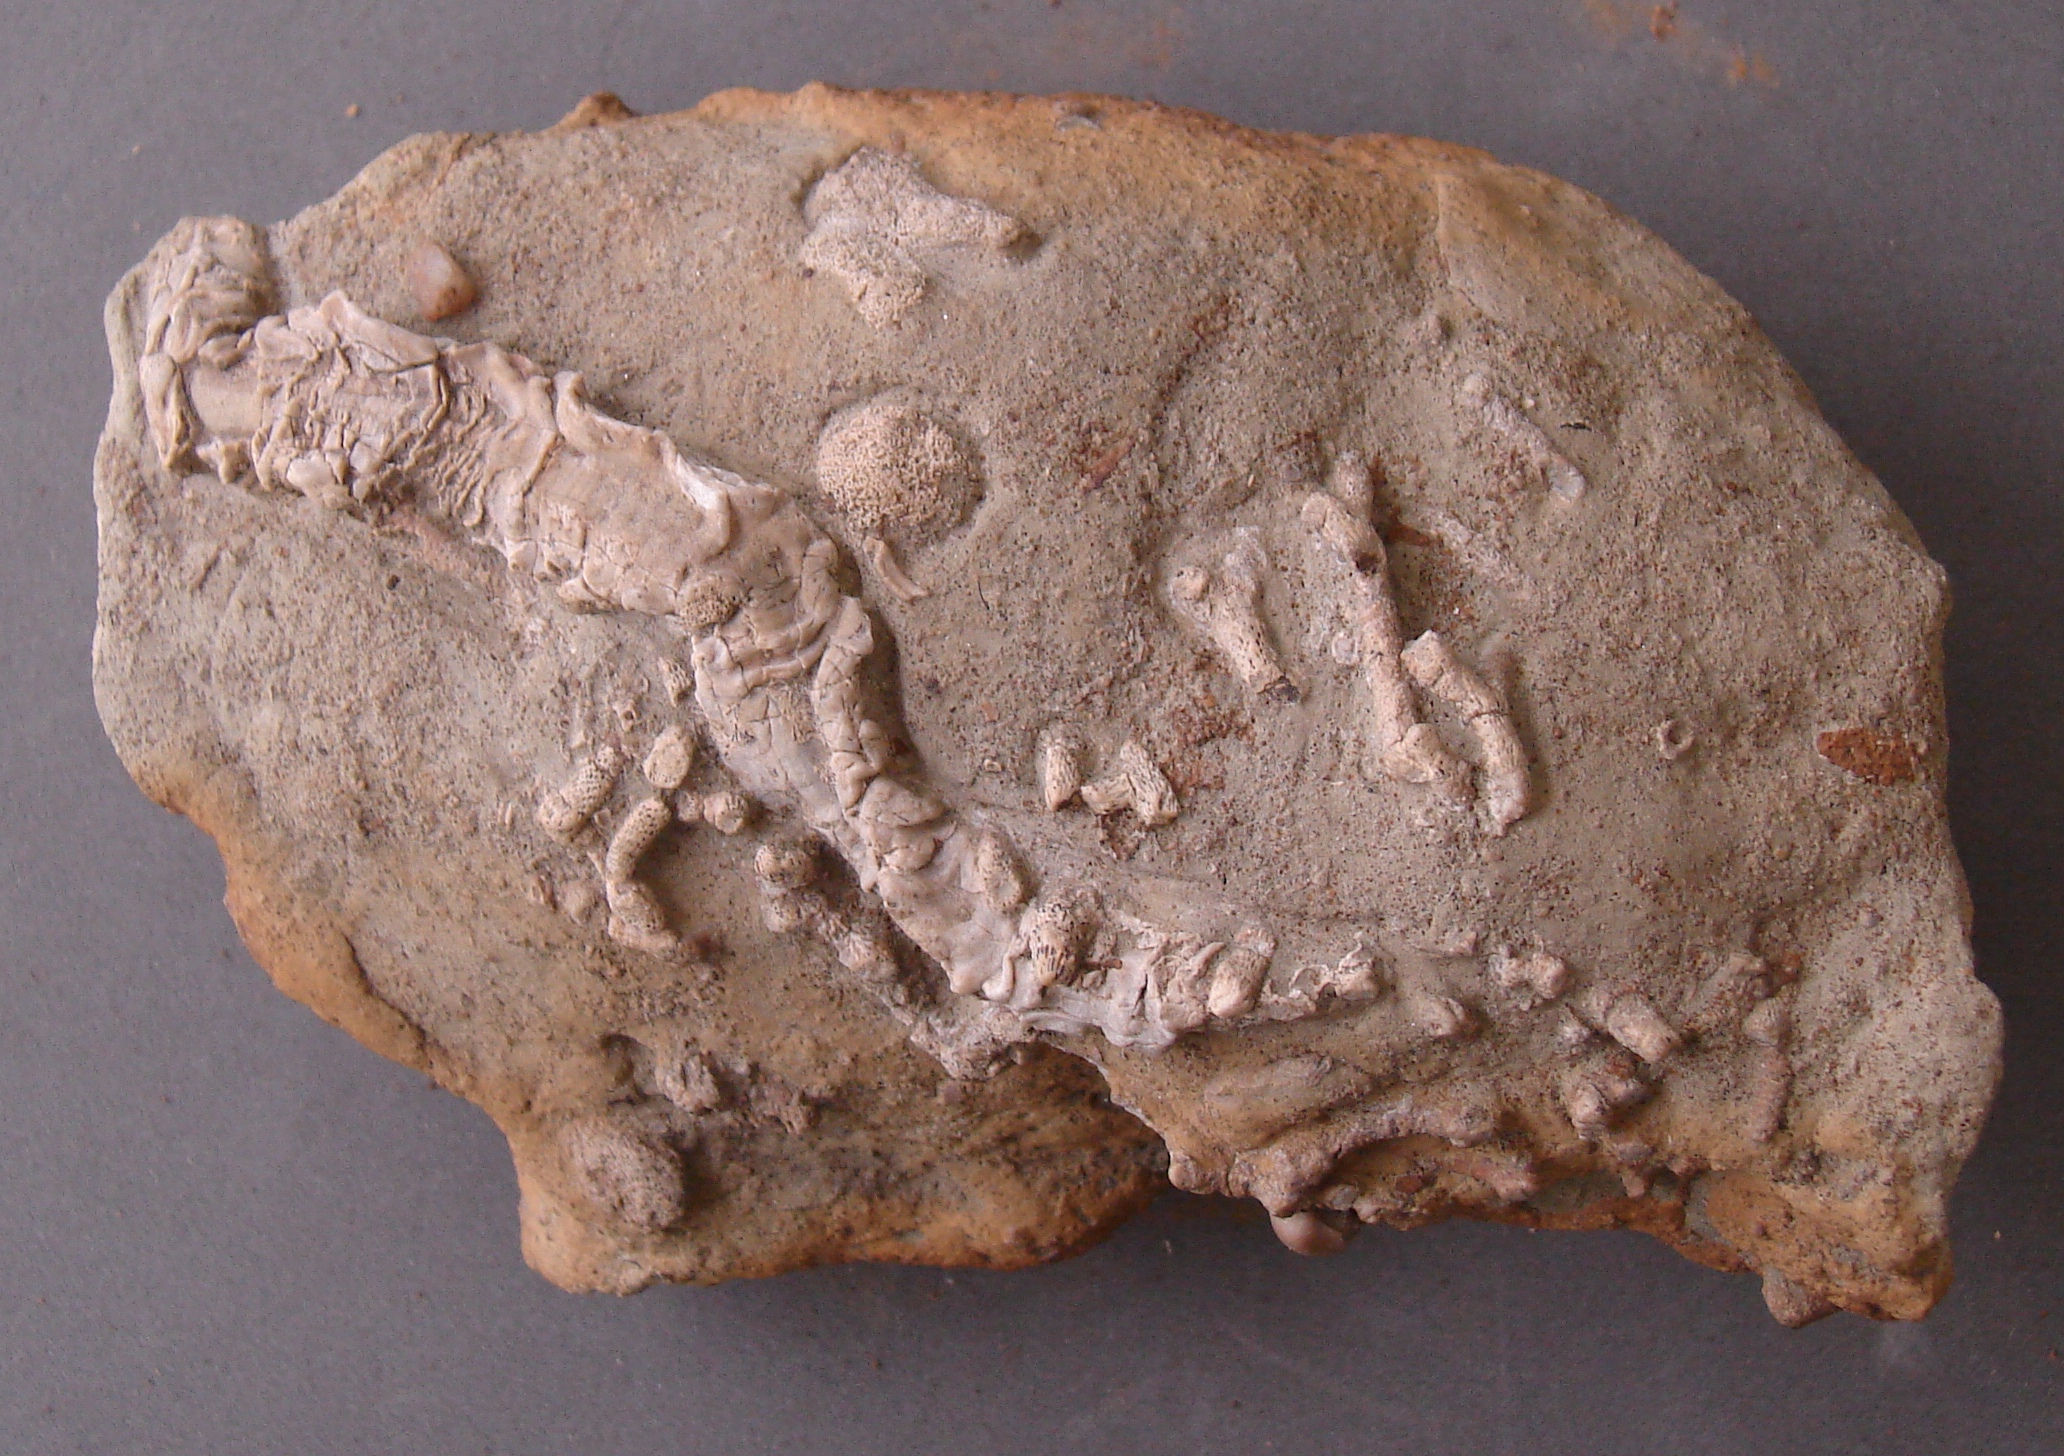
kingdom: Animalia
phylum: Annelida
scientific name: Annelida
